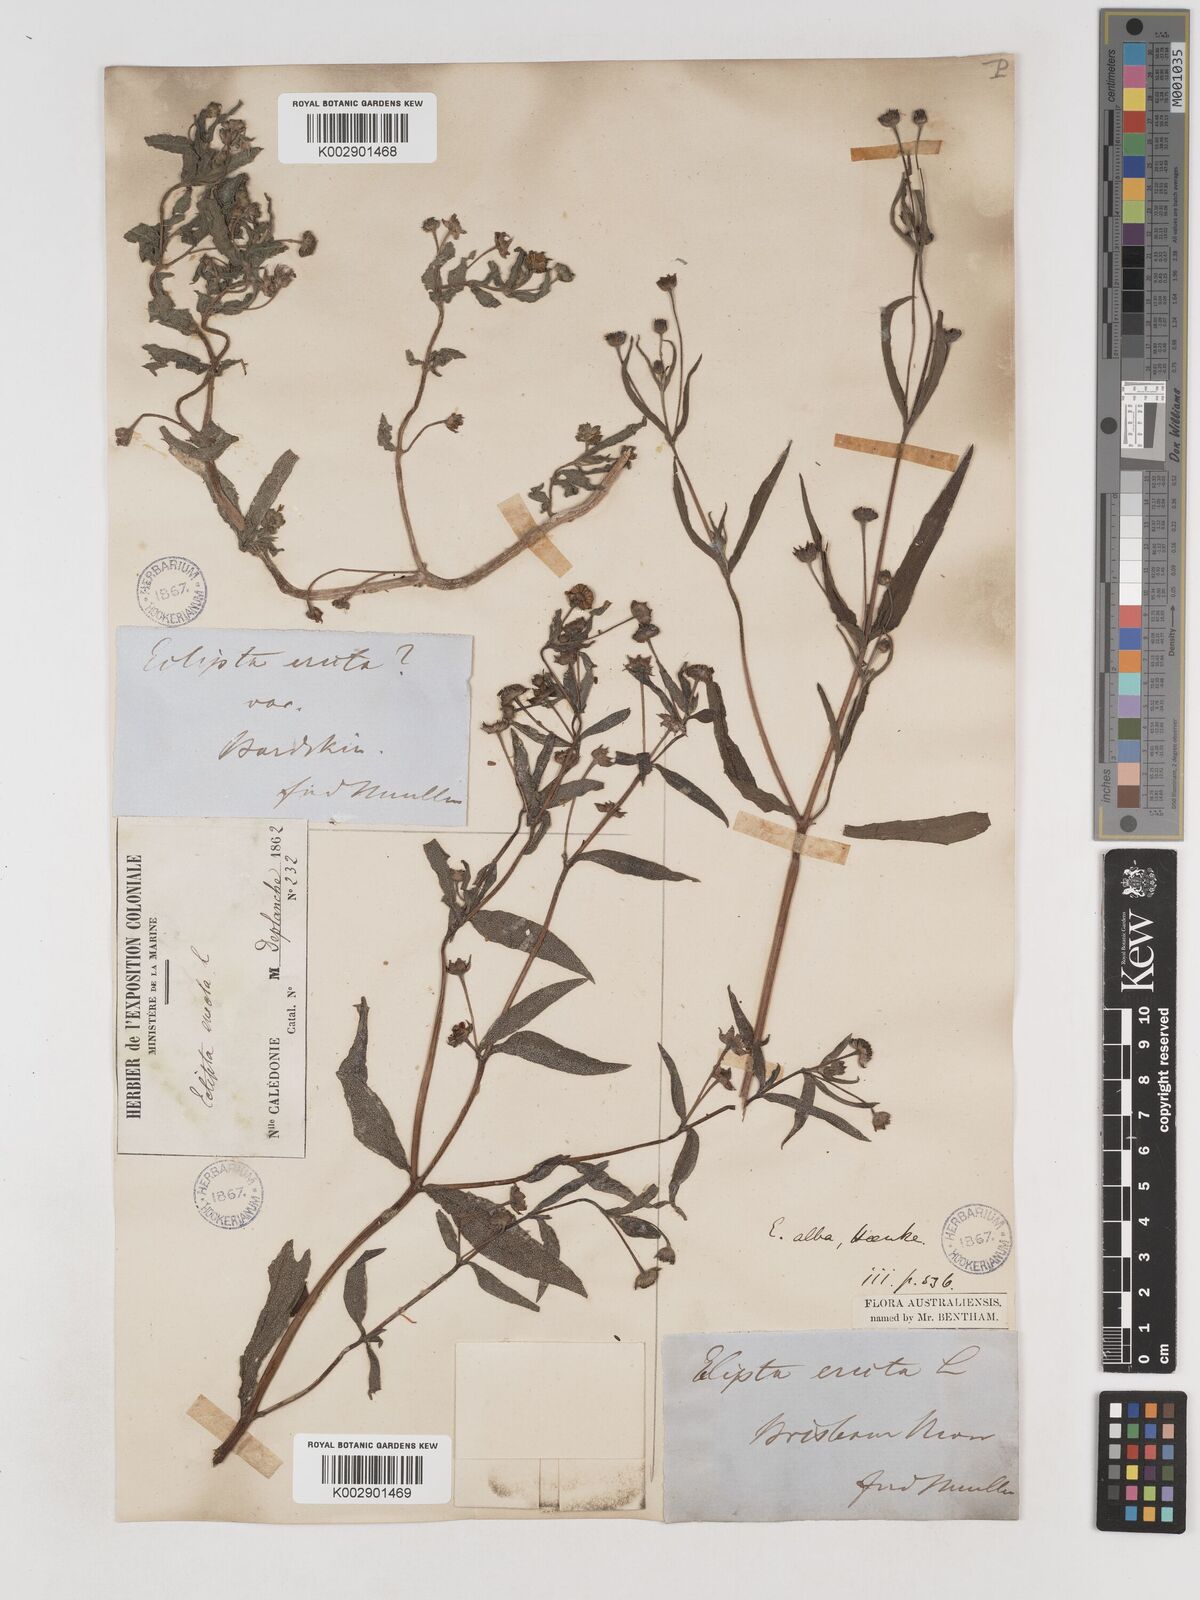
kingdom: Plantae
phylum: Tracheophyta
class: Magnoliopsida
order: Asterales
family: Asteraceae
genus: Eclipta
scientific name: Eclipta alba
